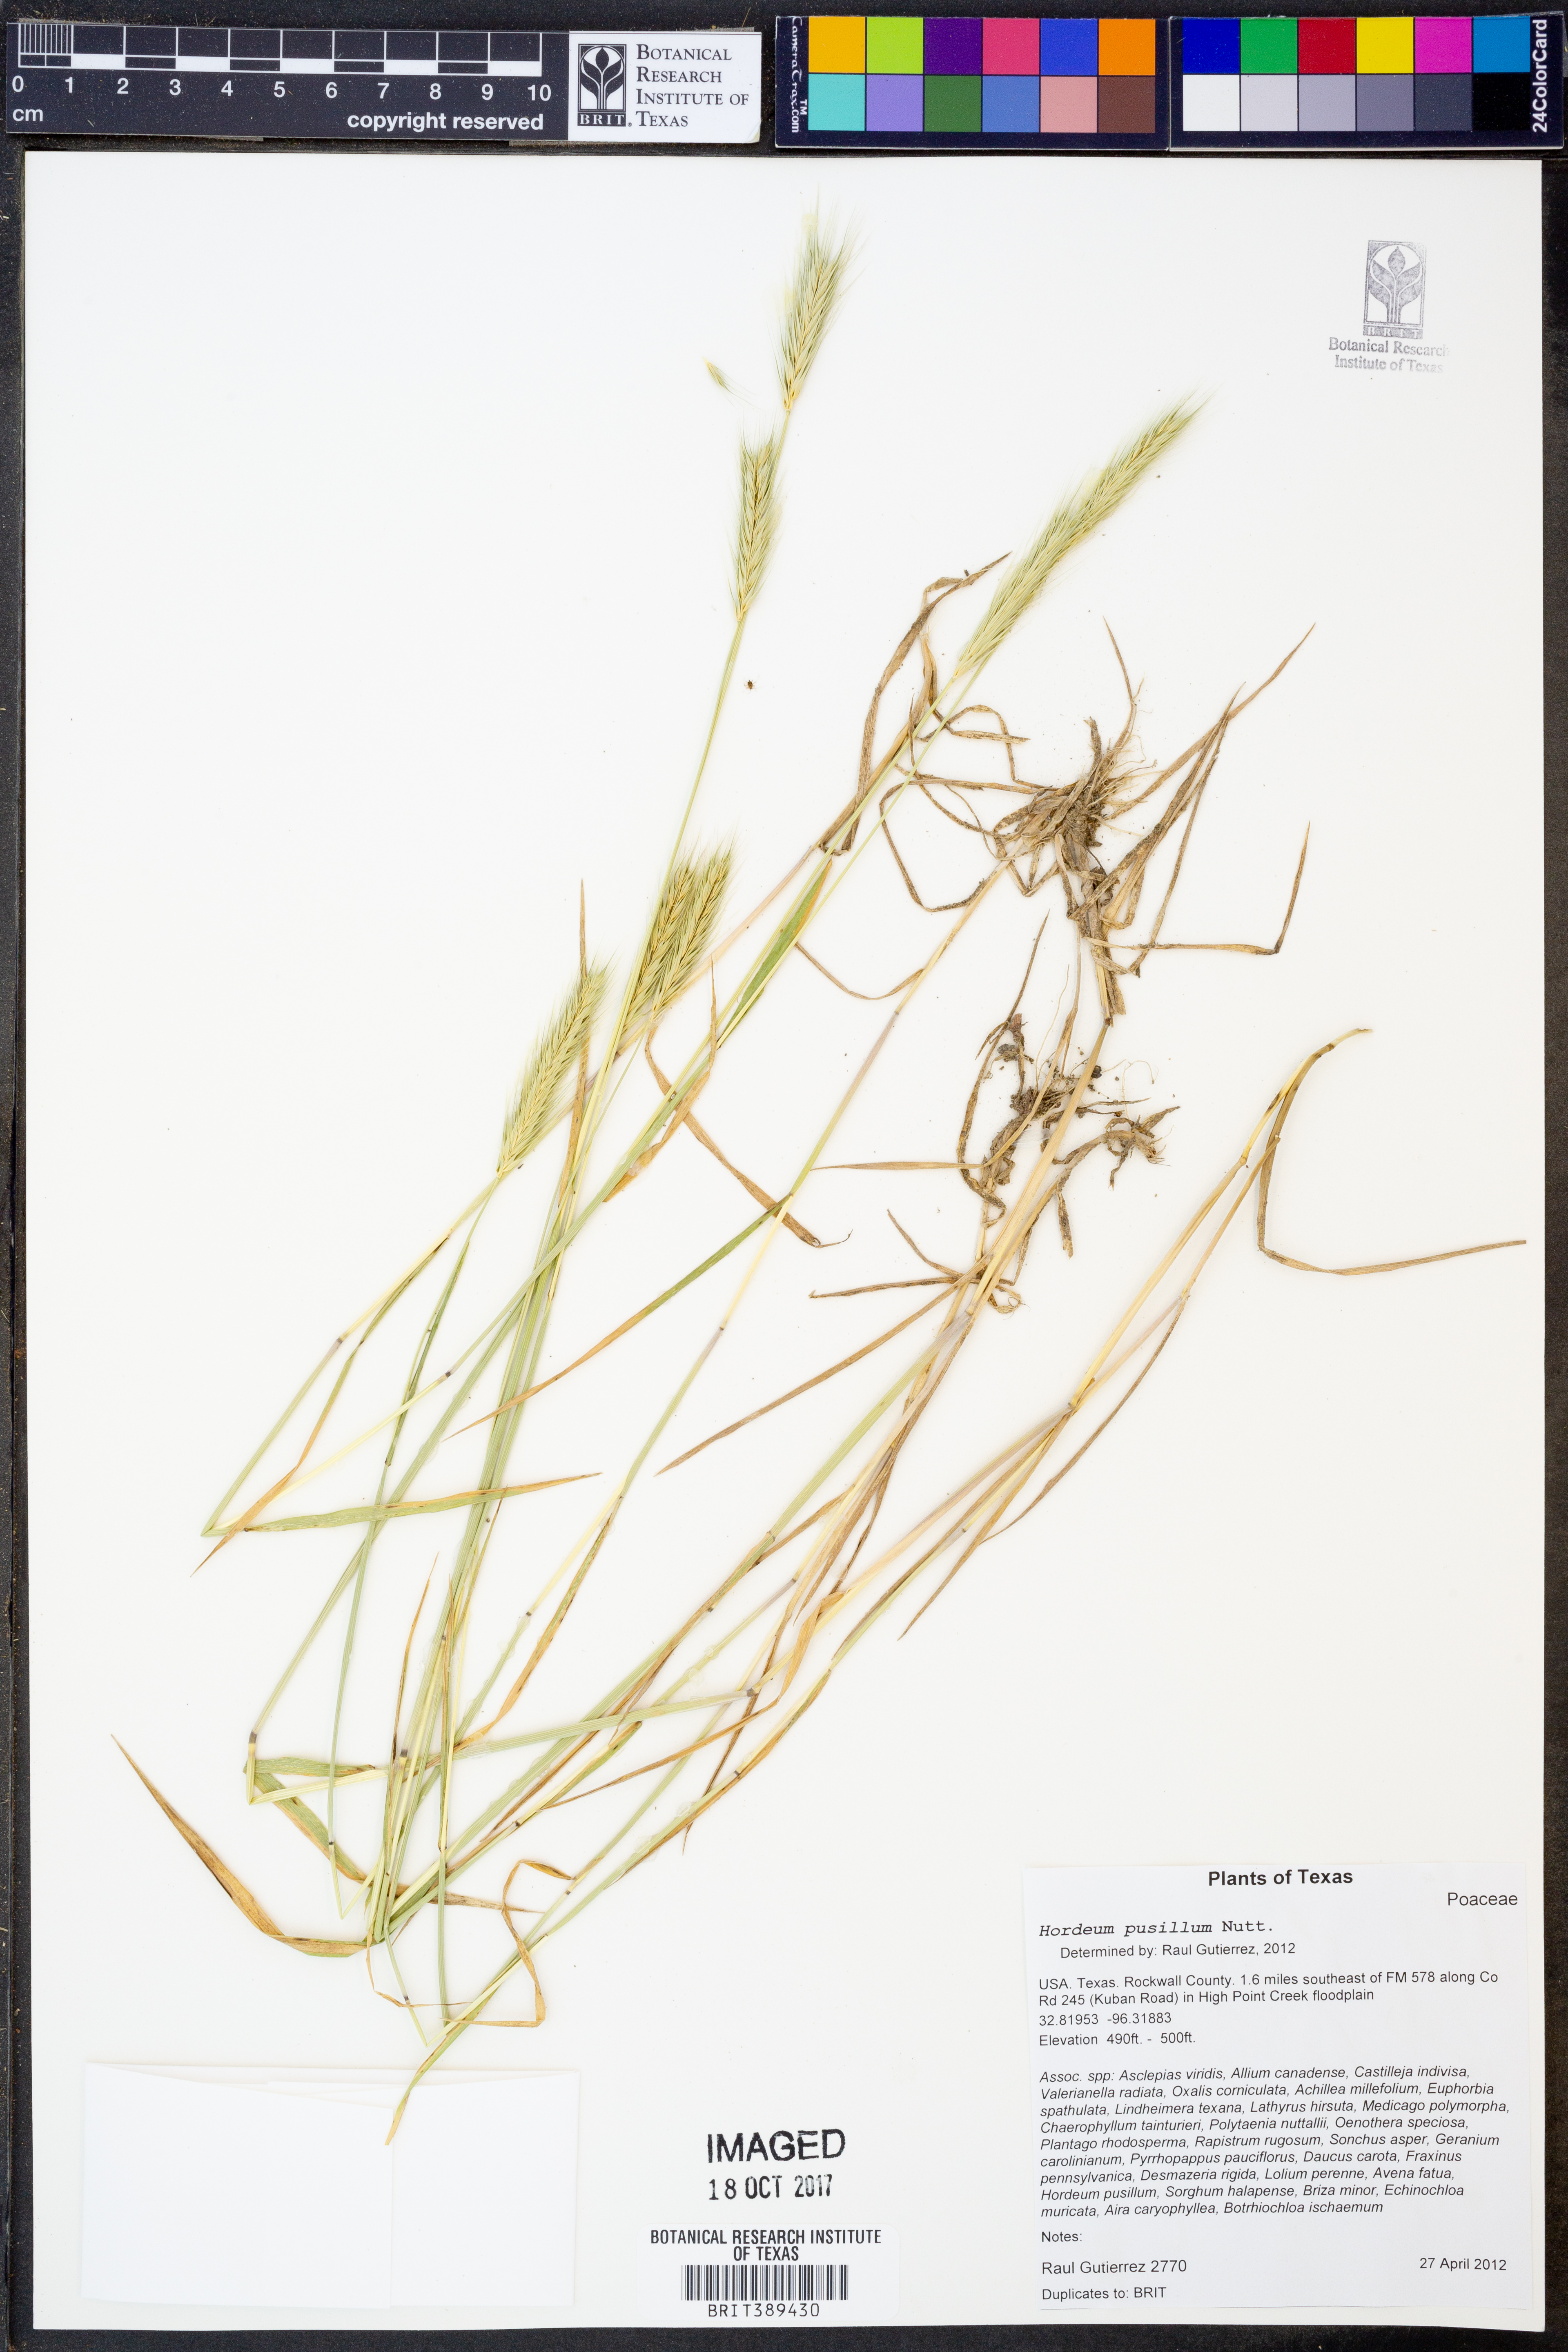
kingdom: Plantae
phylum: Tracheophyta
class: Liliopsida
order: Poales
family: Poaceae
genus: Hordeum
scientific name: Hordeum pusillum
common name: Little barley
